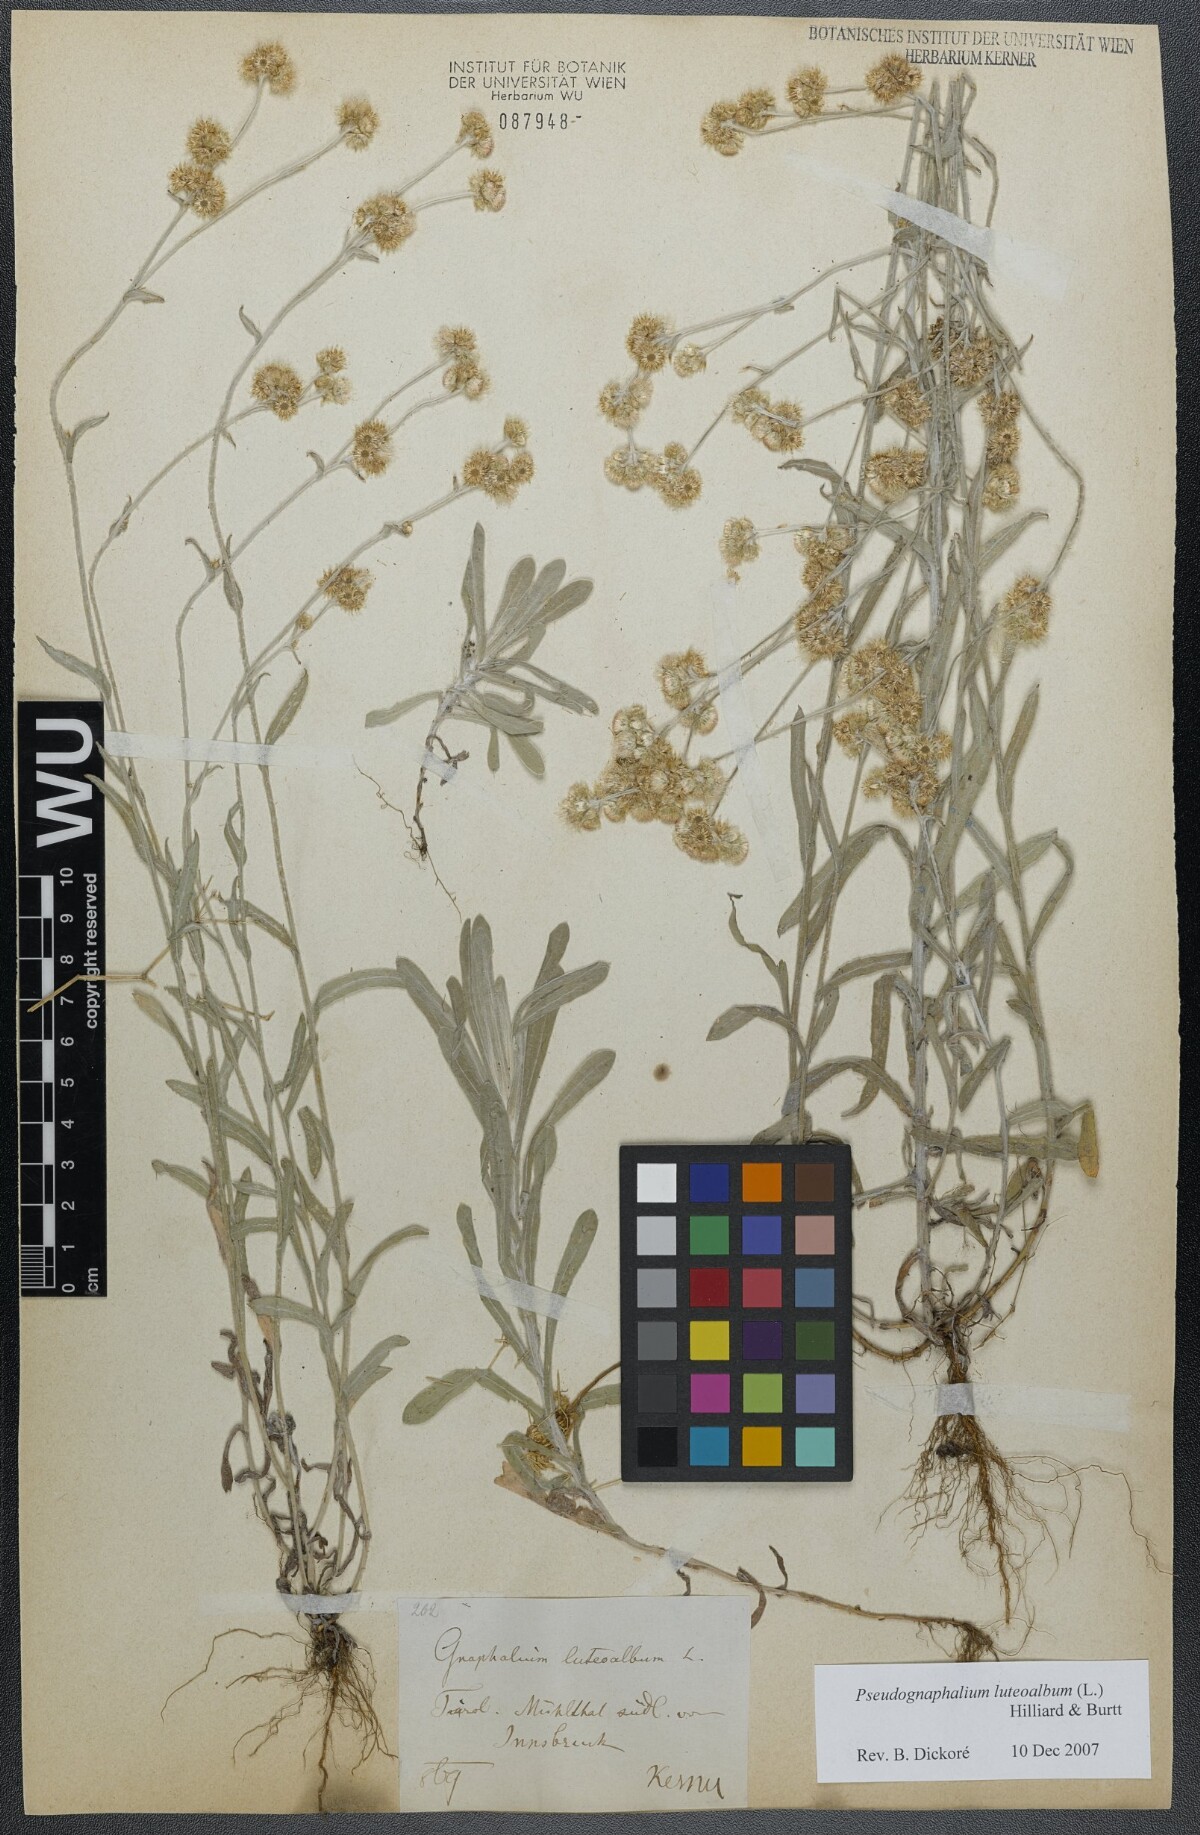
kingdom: Plantae
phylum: Tracheophyta
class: Magnoliopsida
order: Asterales
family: Asteraceae
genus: Helichrysum
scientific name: Helichrysum luteoalbum
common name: Daisy
